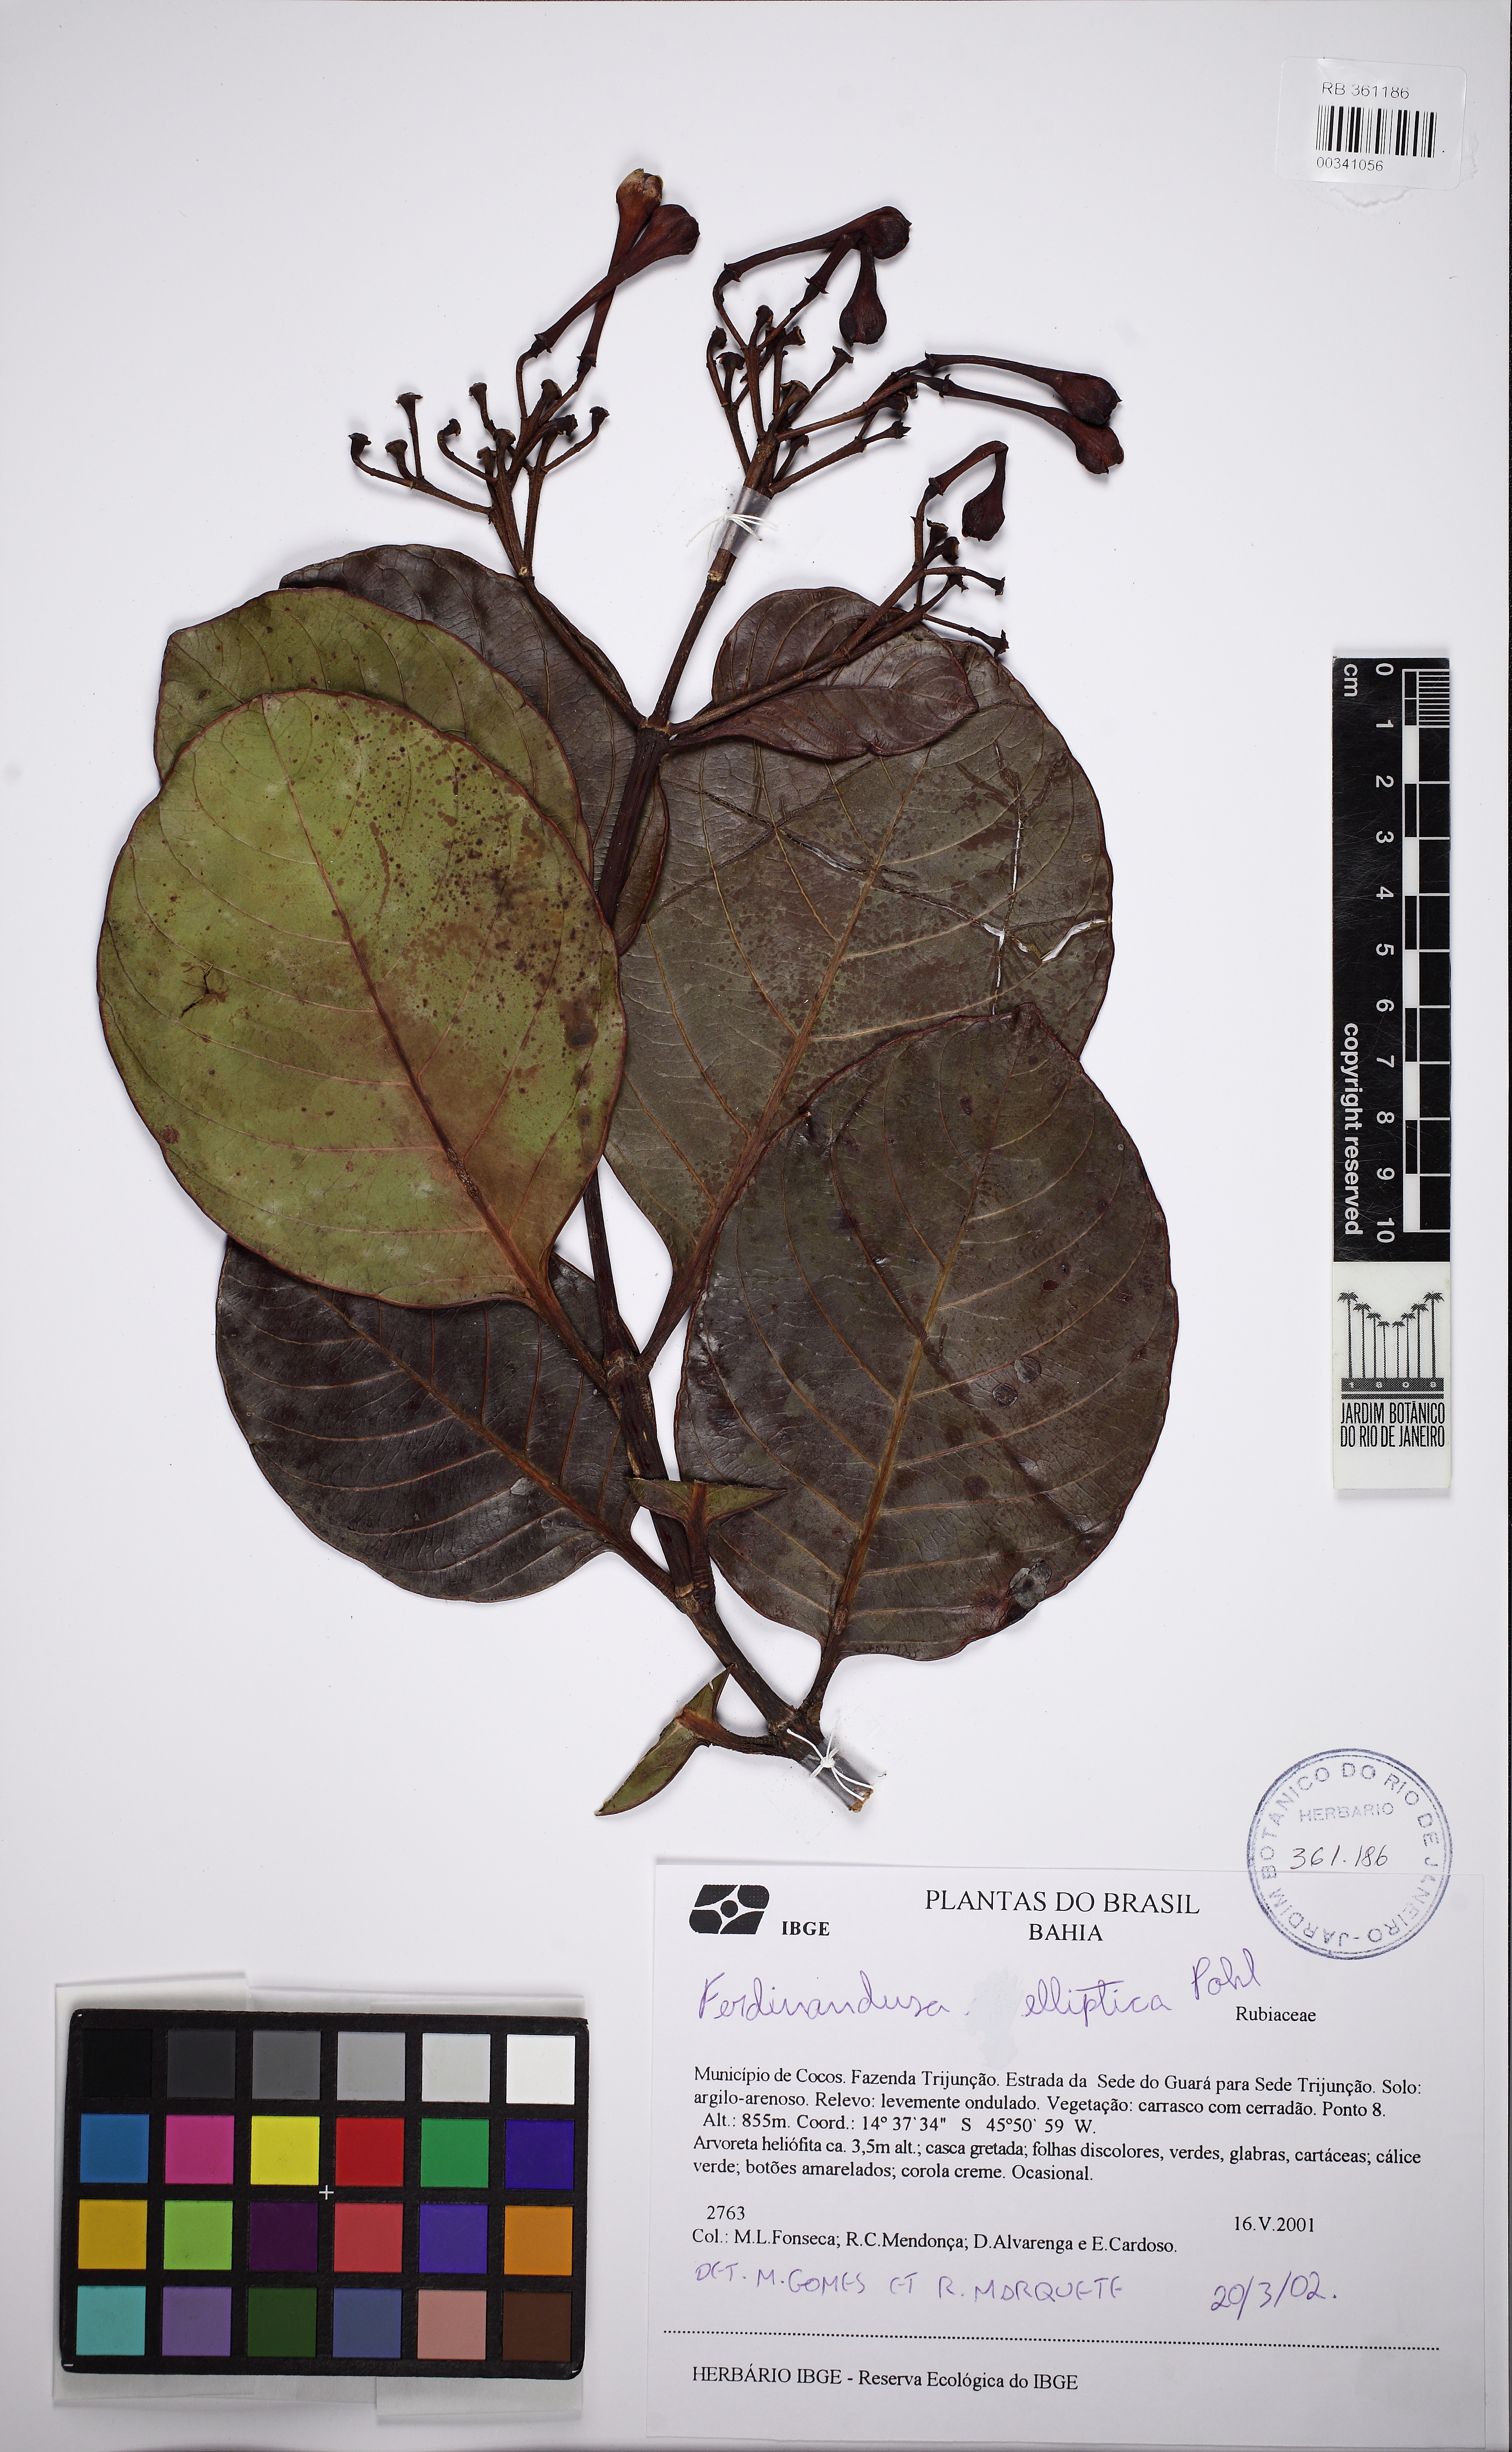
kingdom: Plantae
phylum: Tracheophyta
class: Magnoliopsida
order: Gentianales
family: Rubiaceae
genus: Ferdinandusa
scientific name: Ferdinandusa elliptica
